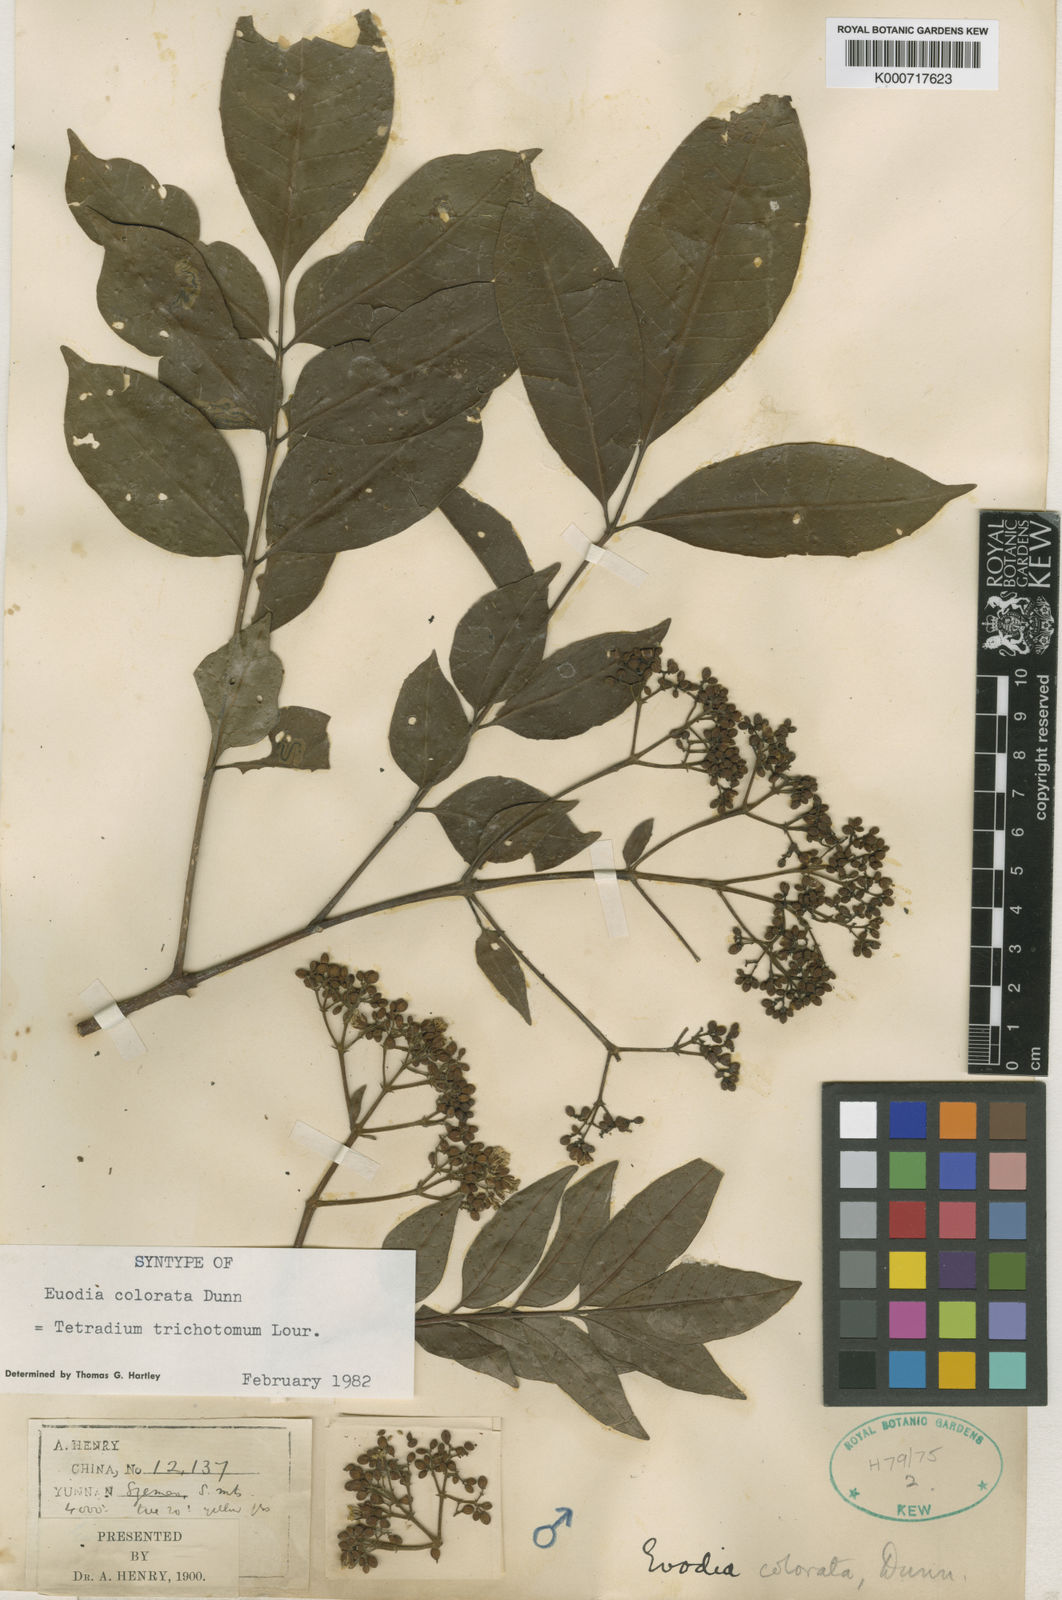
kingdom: Plantae
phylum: Tracheophyta
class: Magnoliopsida
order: Sapindales
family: Rutaceae
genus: Tetradium
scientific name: Tetradium trichotomum
